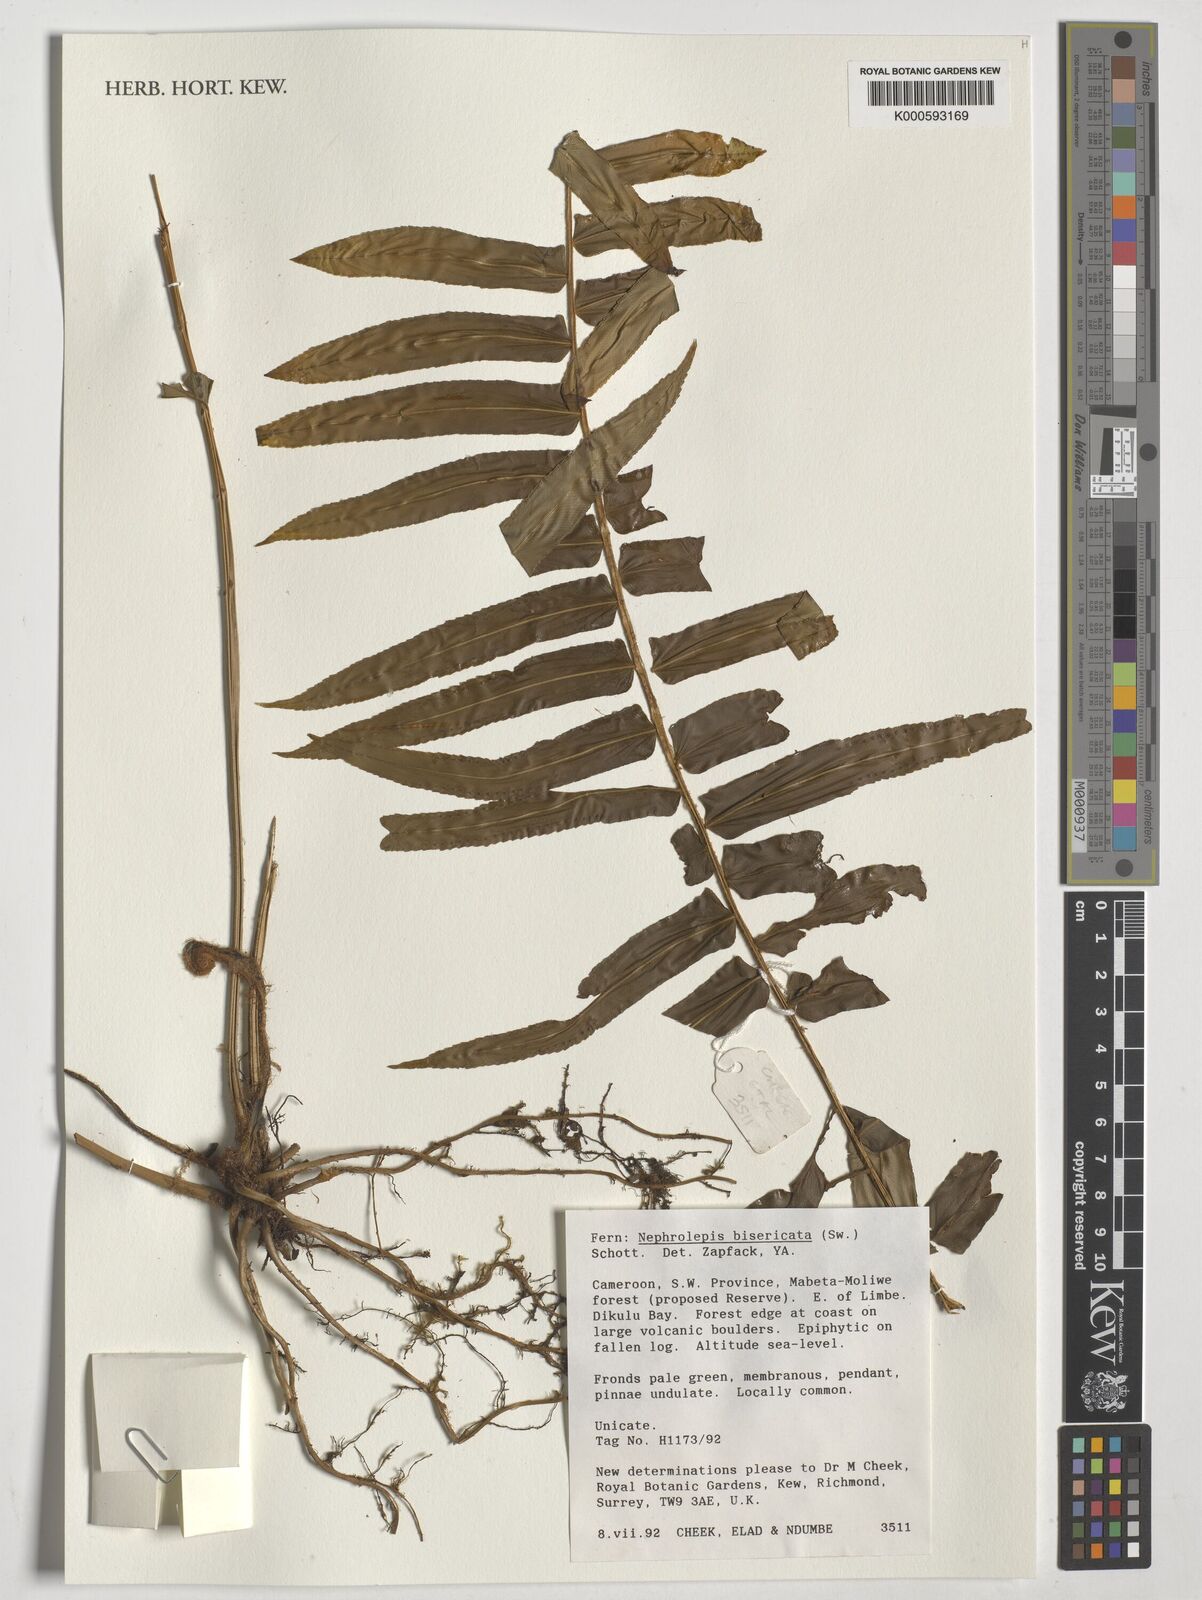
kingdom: Plantae
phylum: Tracheophyta
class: Polypodiopsida
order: Polypodiales
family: Nephrolepidaceae
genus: Nephrolepis
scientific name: Nephrolepis biserrata
